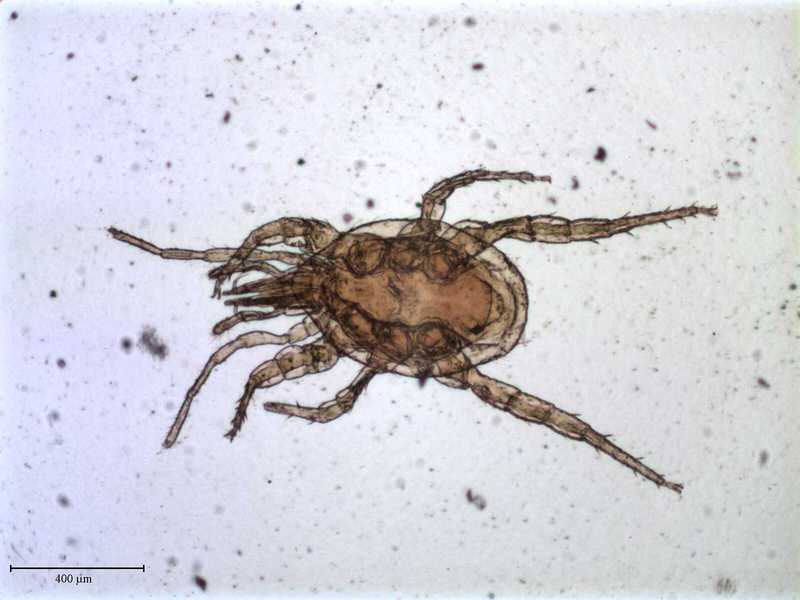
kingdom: Animalia
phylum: Arthropoda
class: Arachnida
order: Mesostigmata
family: Macrochelidae
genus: Nothrholaspis
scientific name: Nothrholaspis planus
